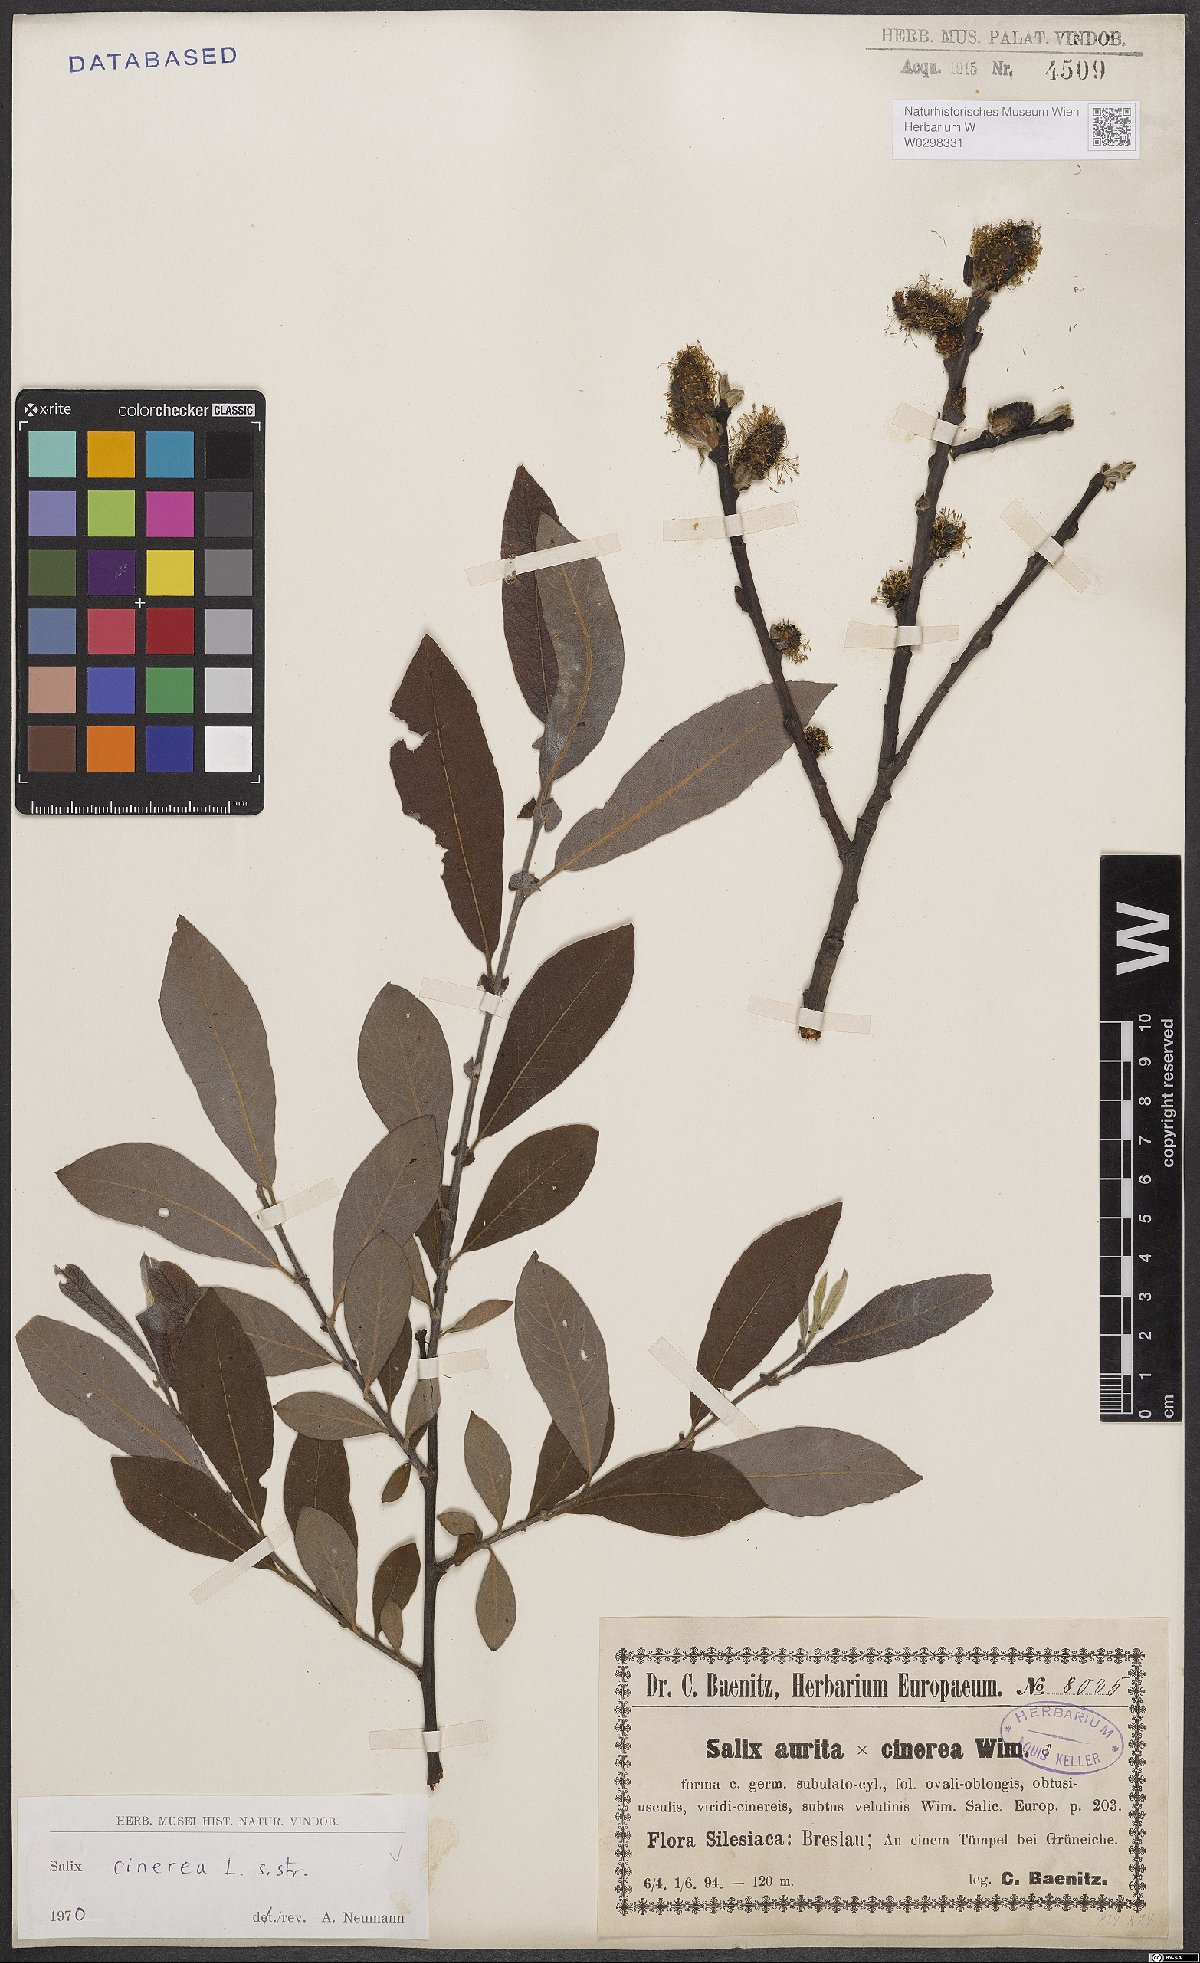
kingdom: Plantae
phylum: Tracheophyta
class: Magnoliopsida
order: Malpighiales
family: Salicaceae
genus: Salix
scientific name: Salix cinerea
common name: Common sallow
